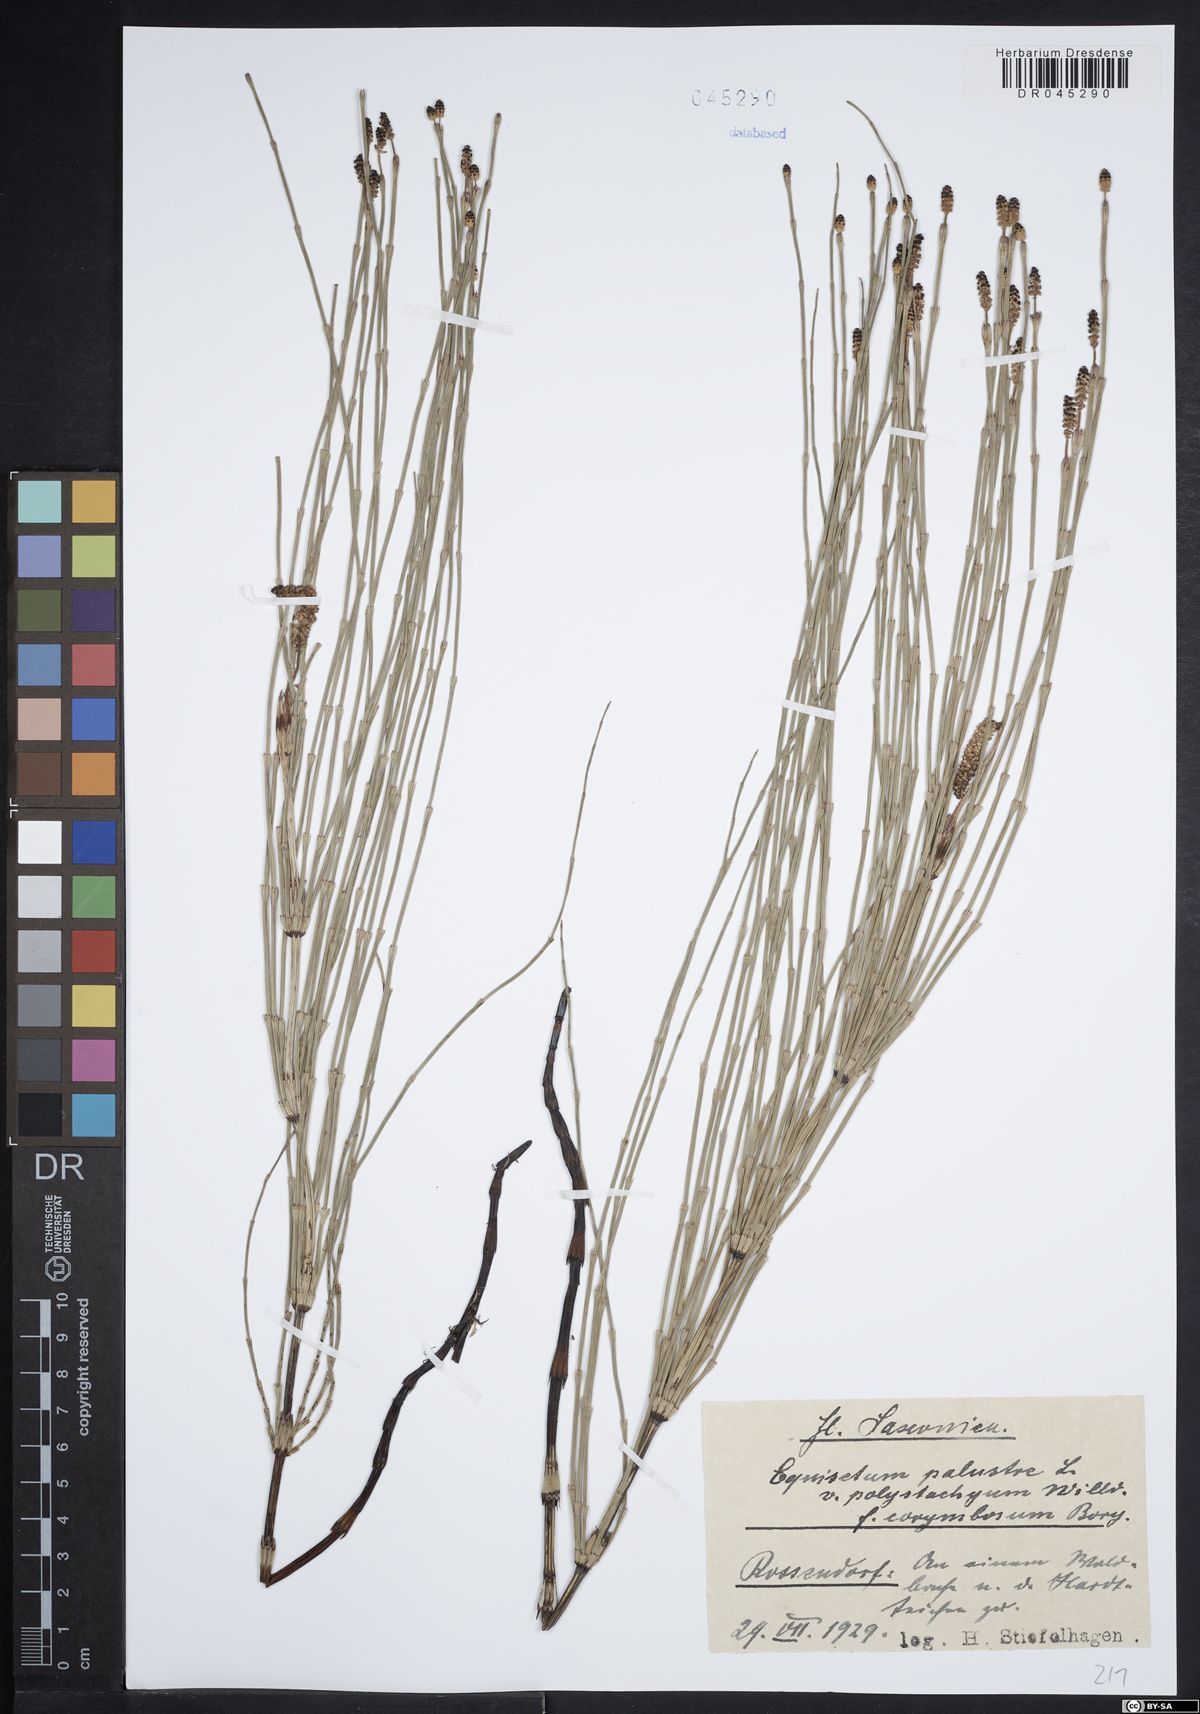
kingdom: Plantae
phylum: Tracheophyta
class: Polypodiopsida
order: Equisetales
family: Equisetaceae
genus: Equisetum
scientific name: Equisetum palustre
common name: Marsh horsetail
